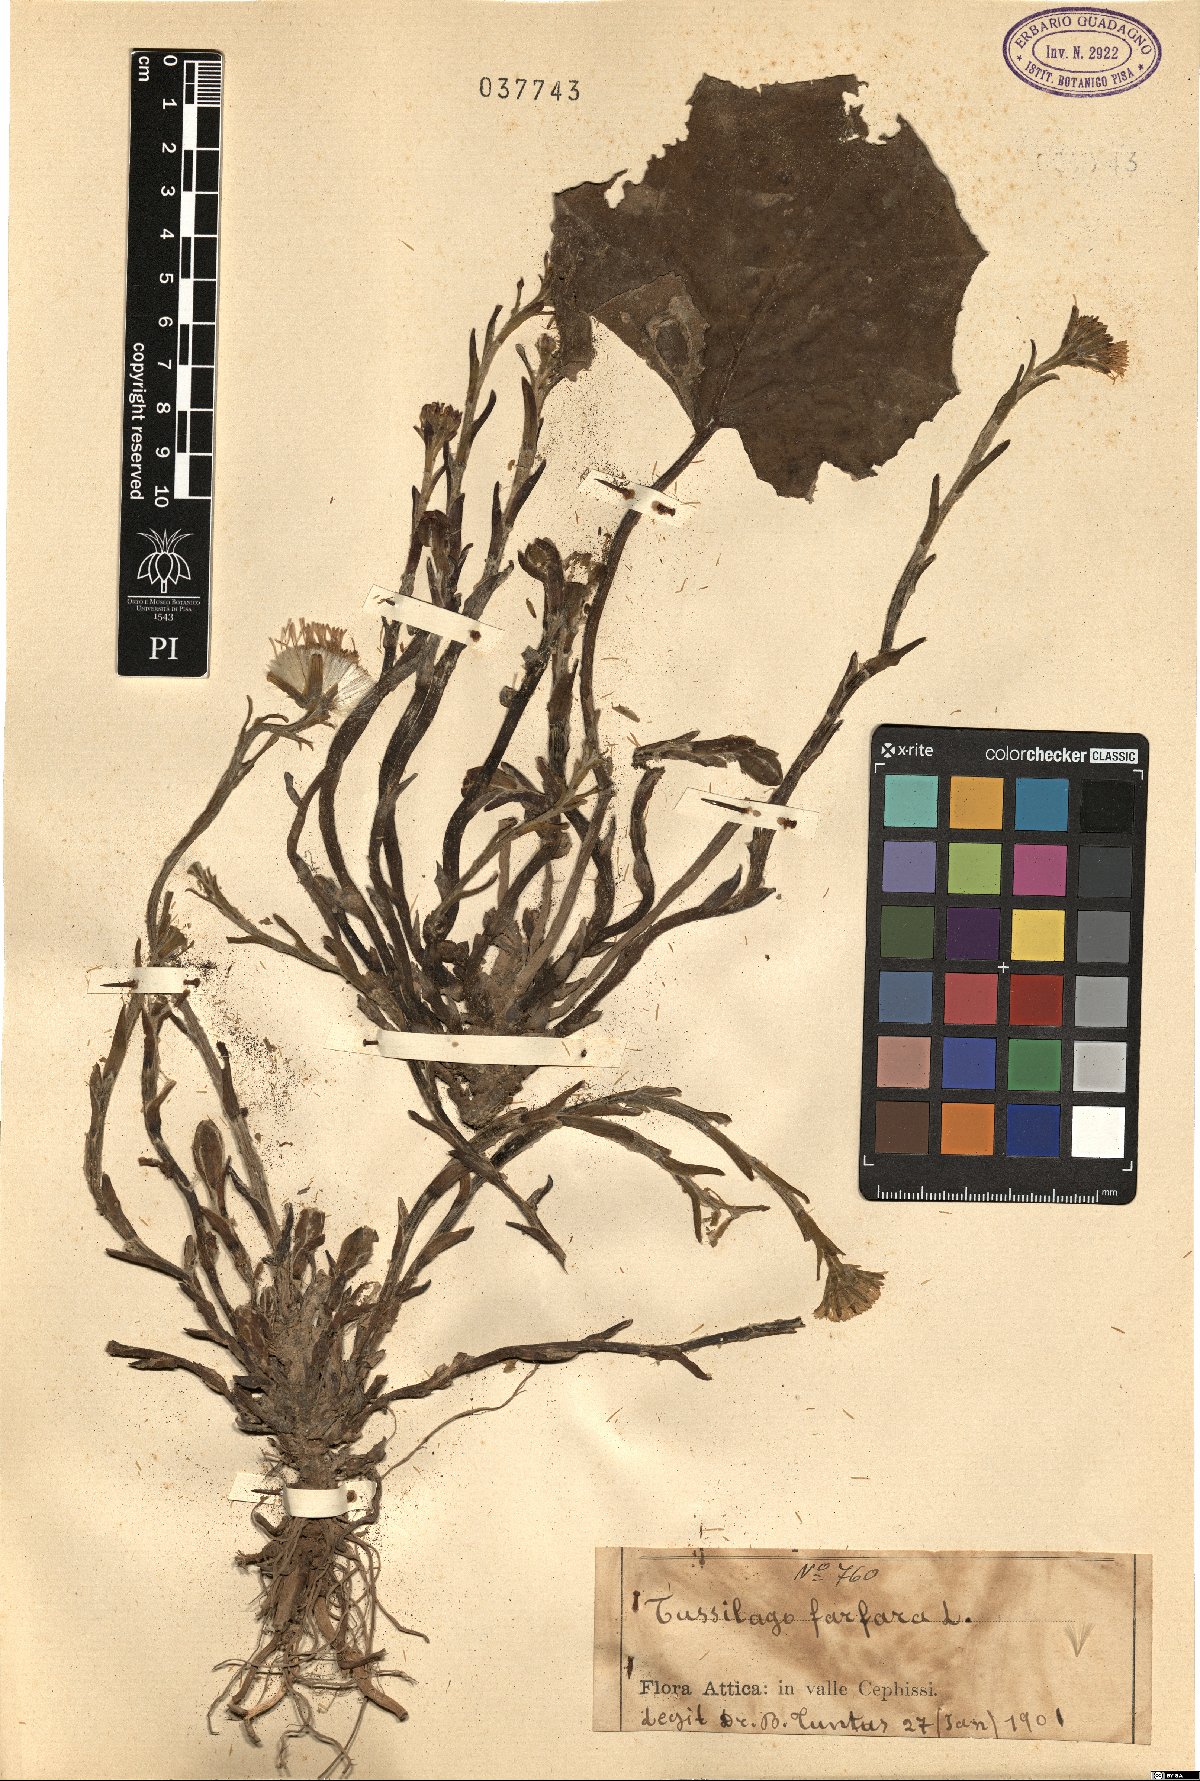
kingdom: Plantae
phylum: Tracheophyta
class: Magnoliopsida
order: Asterales
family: Asteraceae
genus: Tussilago
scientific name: Tussilago farfara
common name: Coltsfoot
